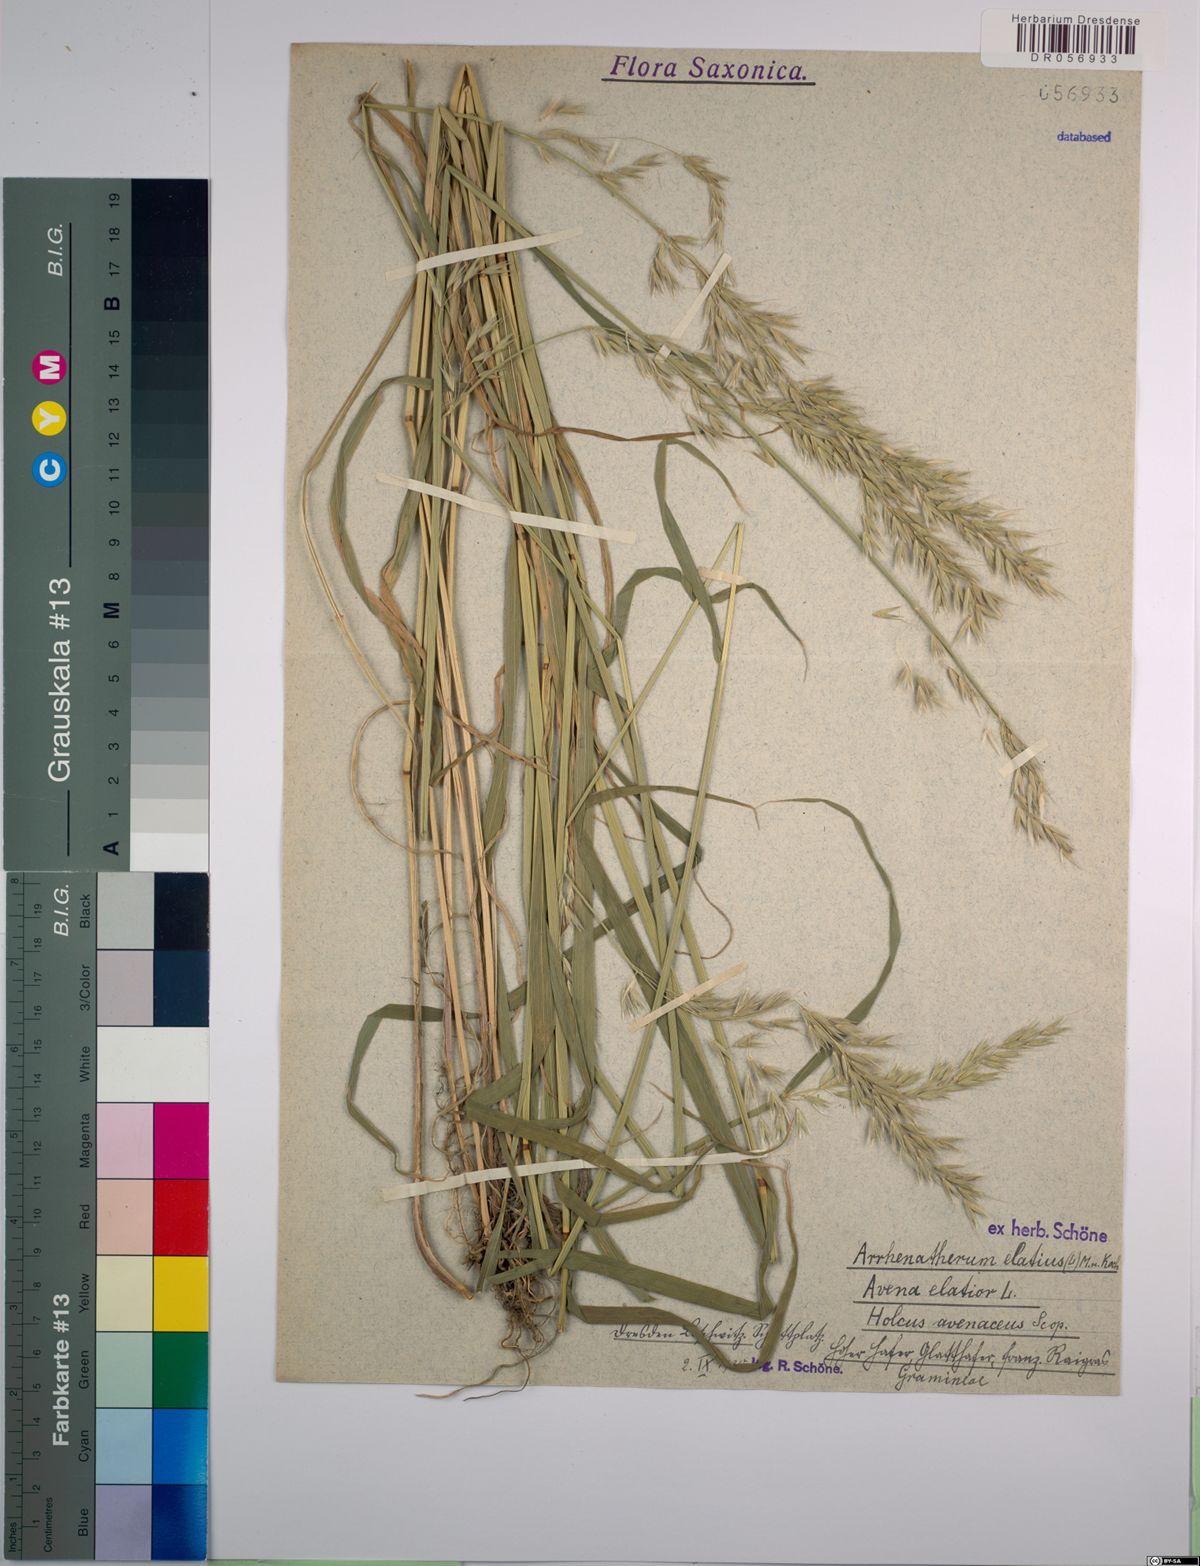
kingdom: Plantae
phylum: Tracheophyta
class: Liliopsida
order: Poales
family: Poaceae
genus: Arrhenatherum
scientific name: Arrhenatherum elatius
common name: Tall oatgrass
